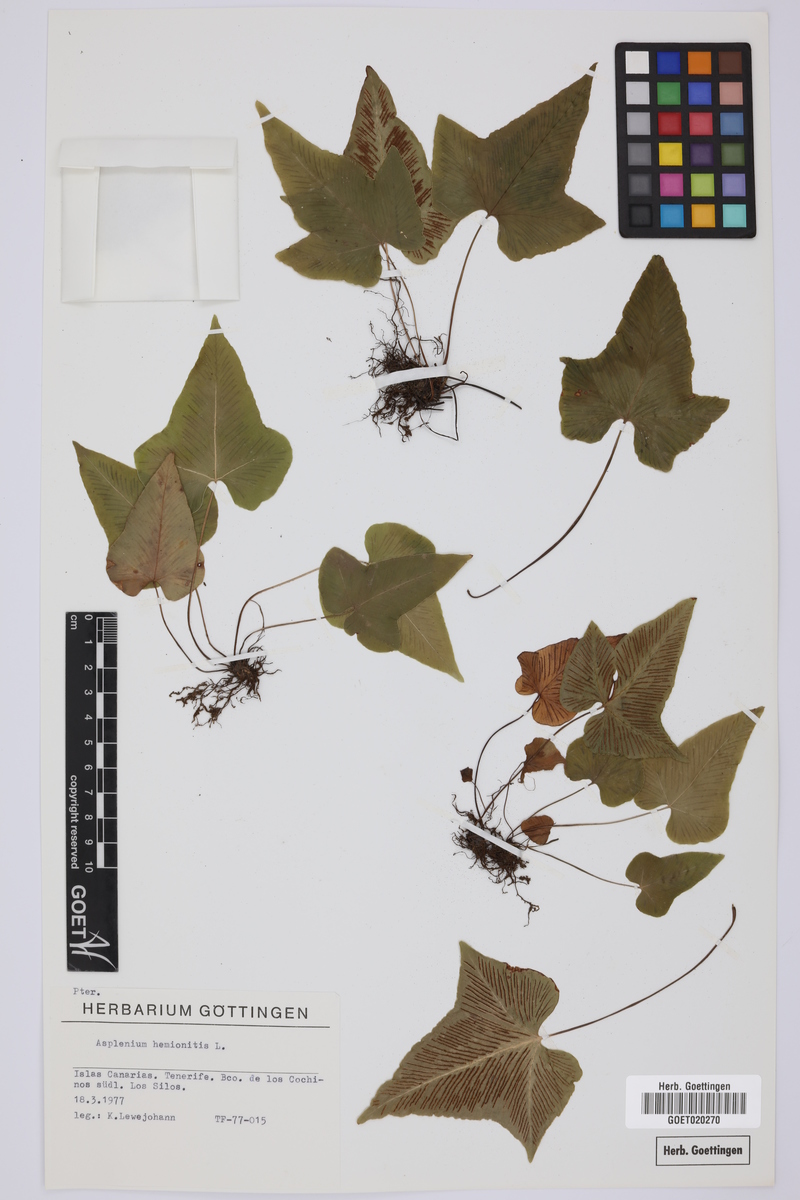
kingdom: Plantae
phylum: Tracheophyta
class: Polypodiopsida
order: Polypodiales
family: Aspleniaceae
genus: Asplenium
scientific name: Asplenium hemionitis
